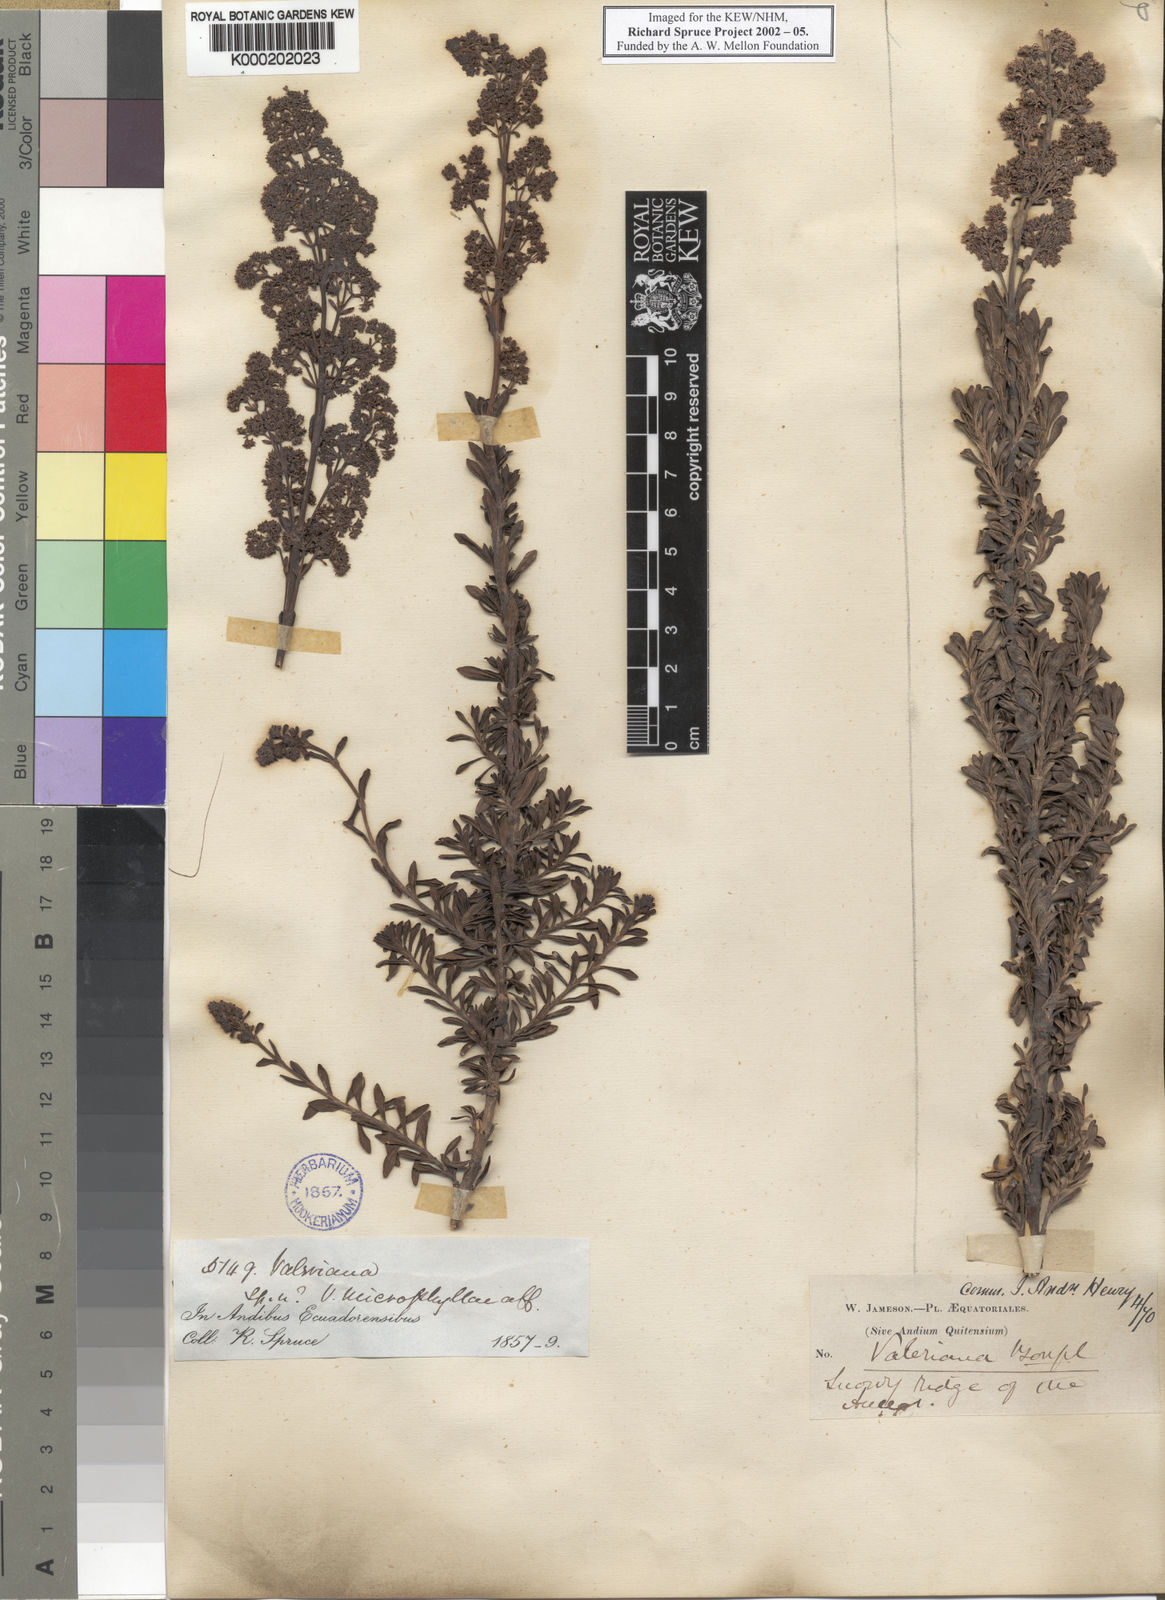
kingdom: Plantae
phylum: Tracheophyta
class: Magnoliopsida
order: Dipsacales
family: Caprifoliaceae
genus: Valeriana
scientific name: Valeriana microphylla
